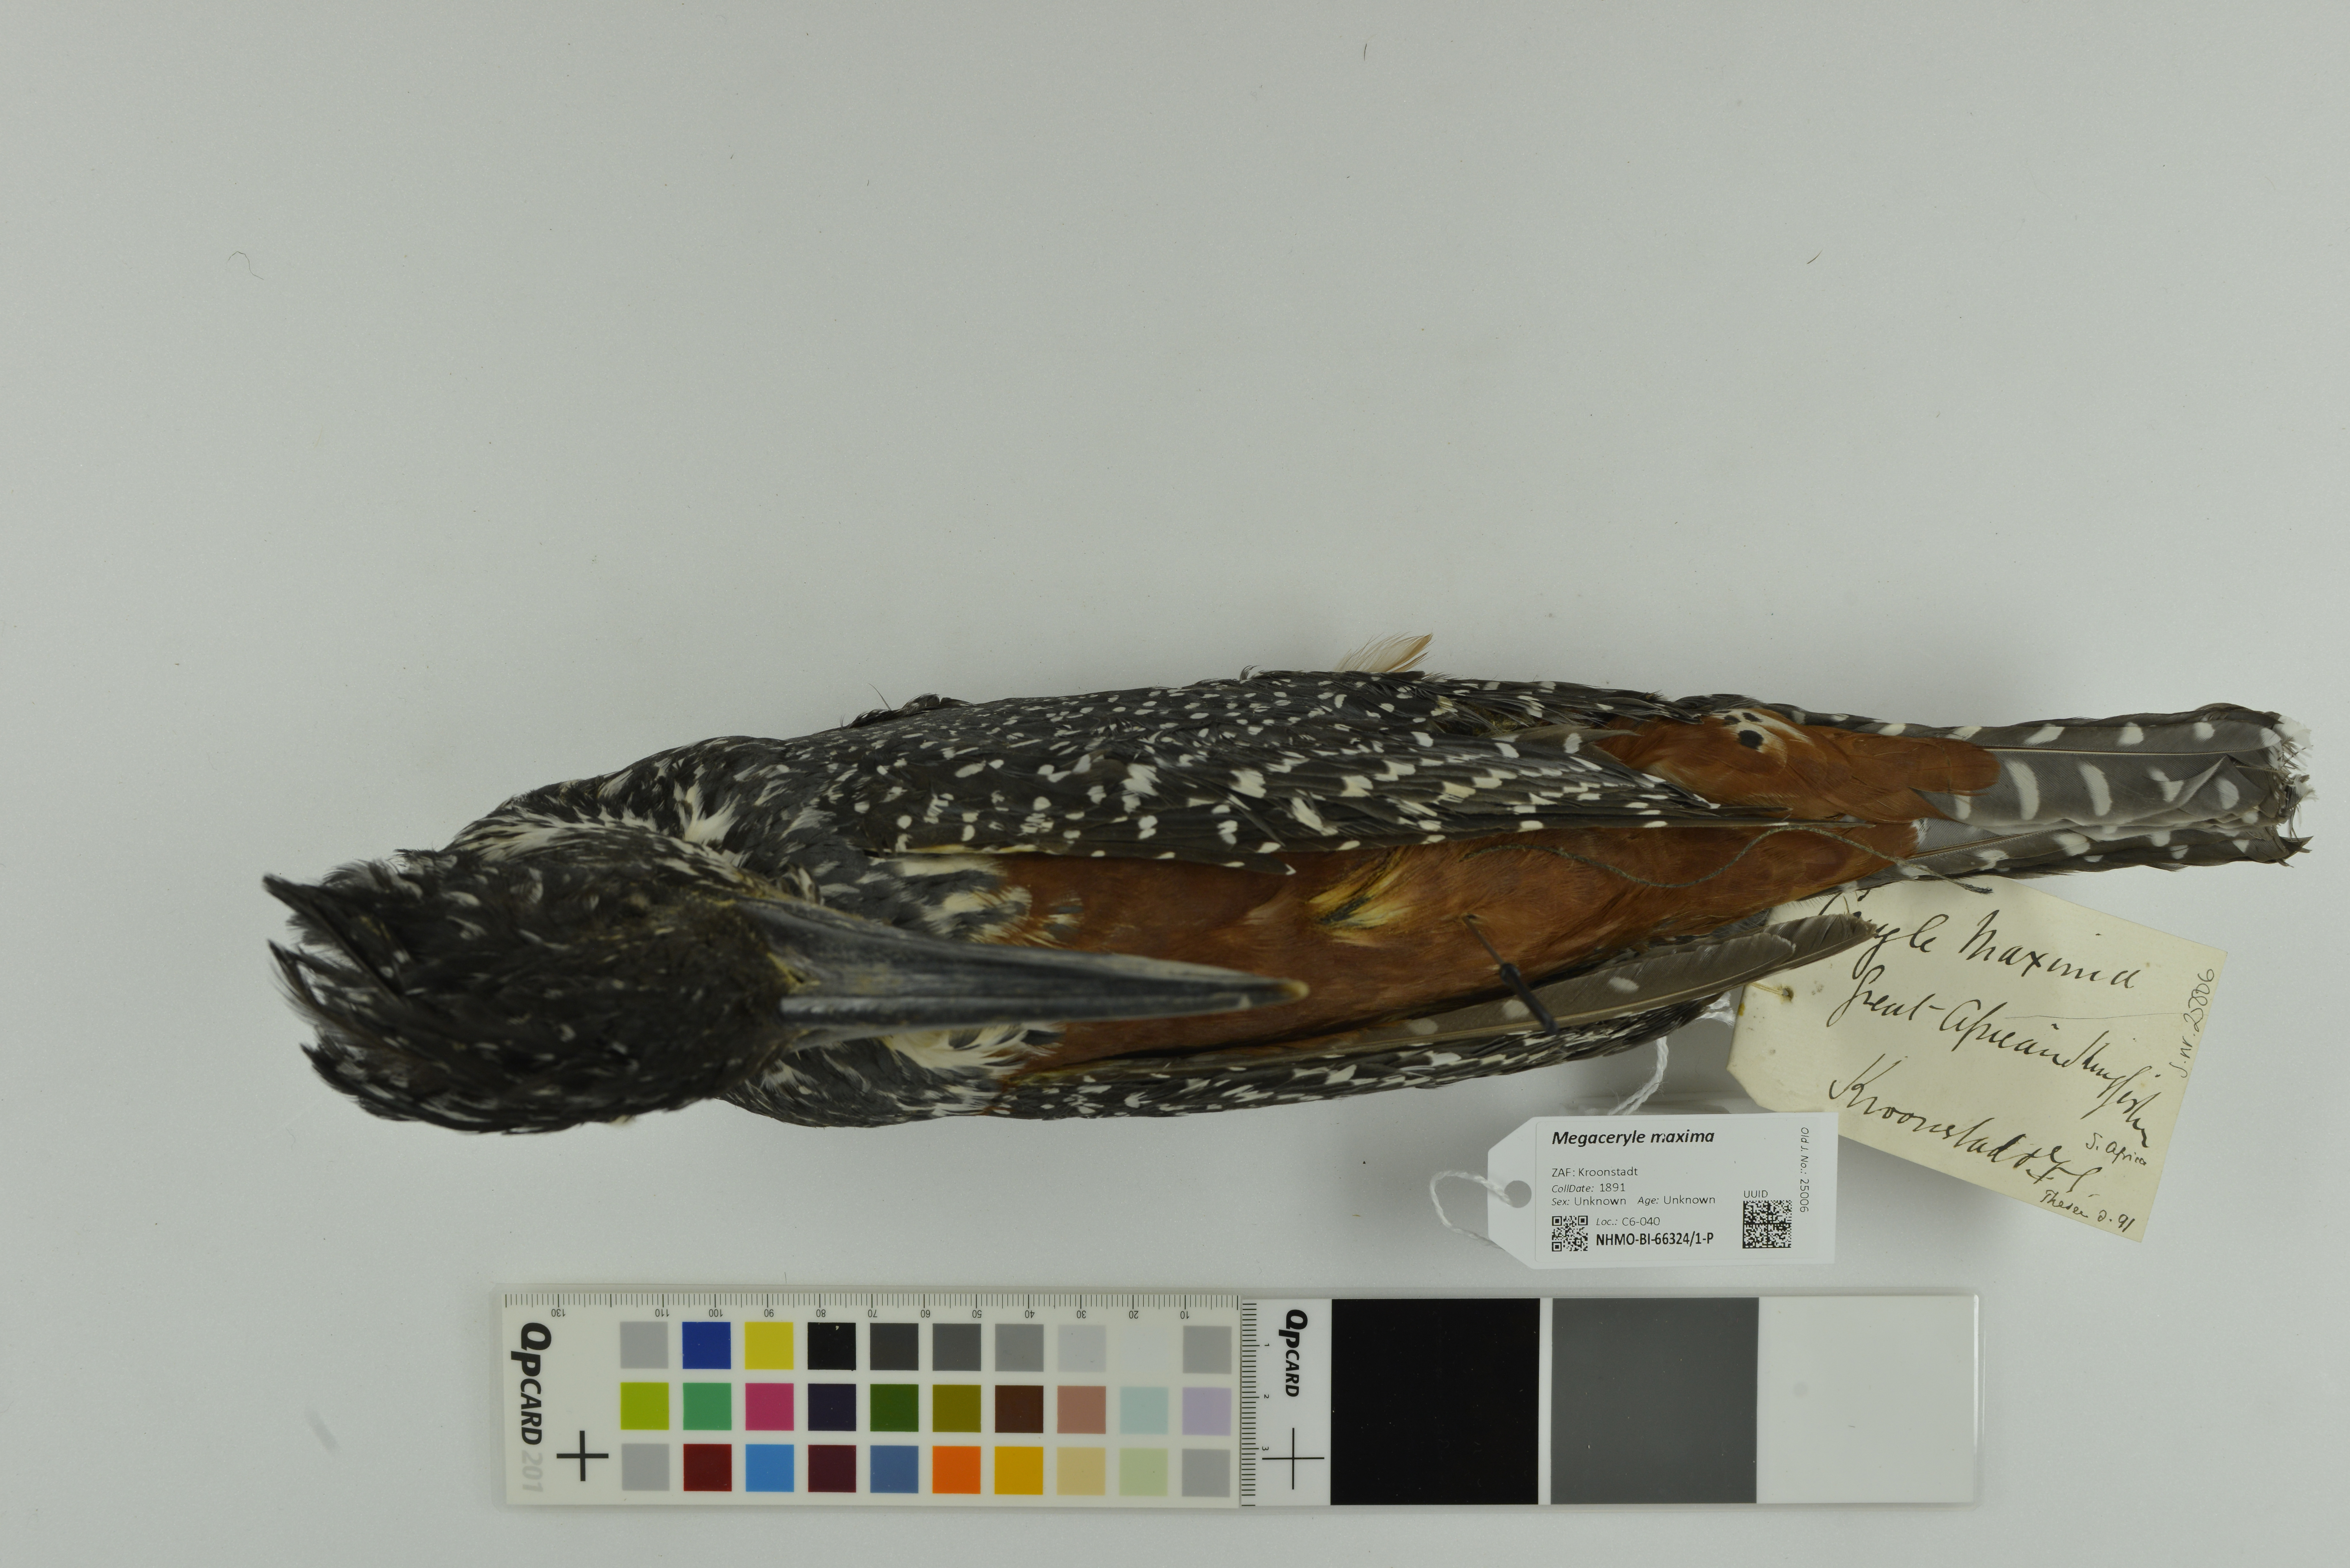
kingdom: Animalia
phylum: Chordata
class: Aves
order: Coraciiformes
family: Alcedinidae
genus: Megaceryle
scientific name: Megaceryle maxima
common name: Giant kingfisher
